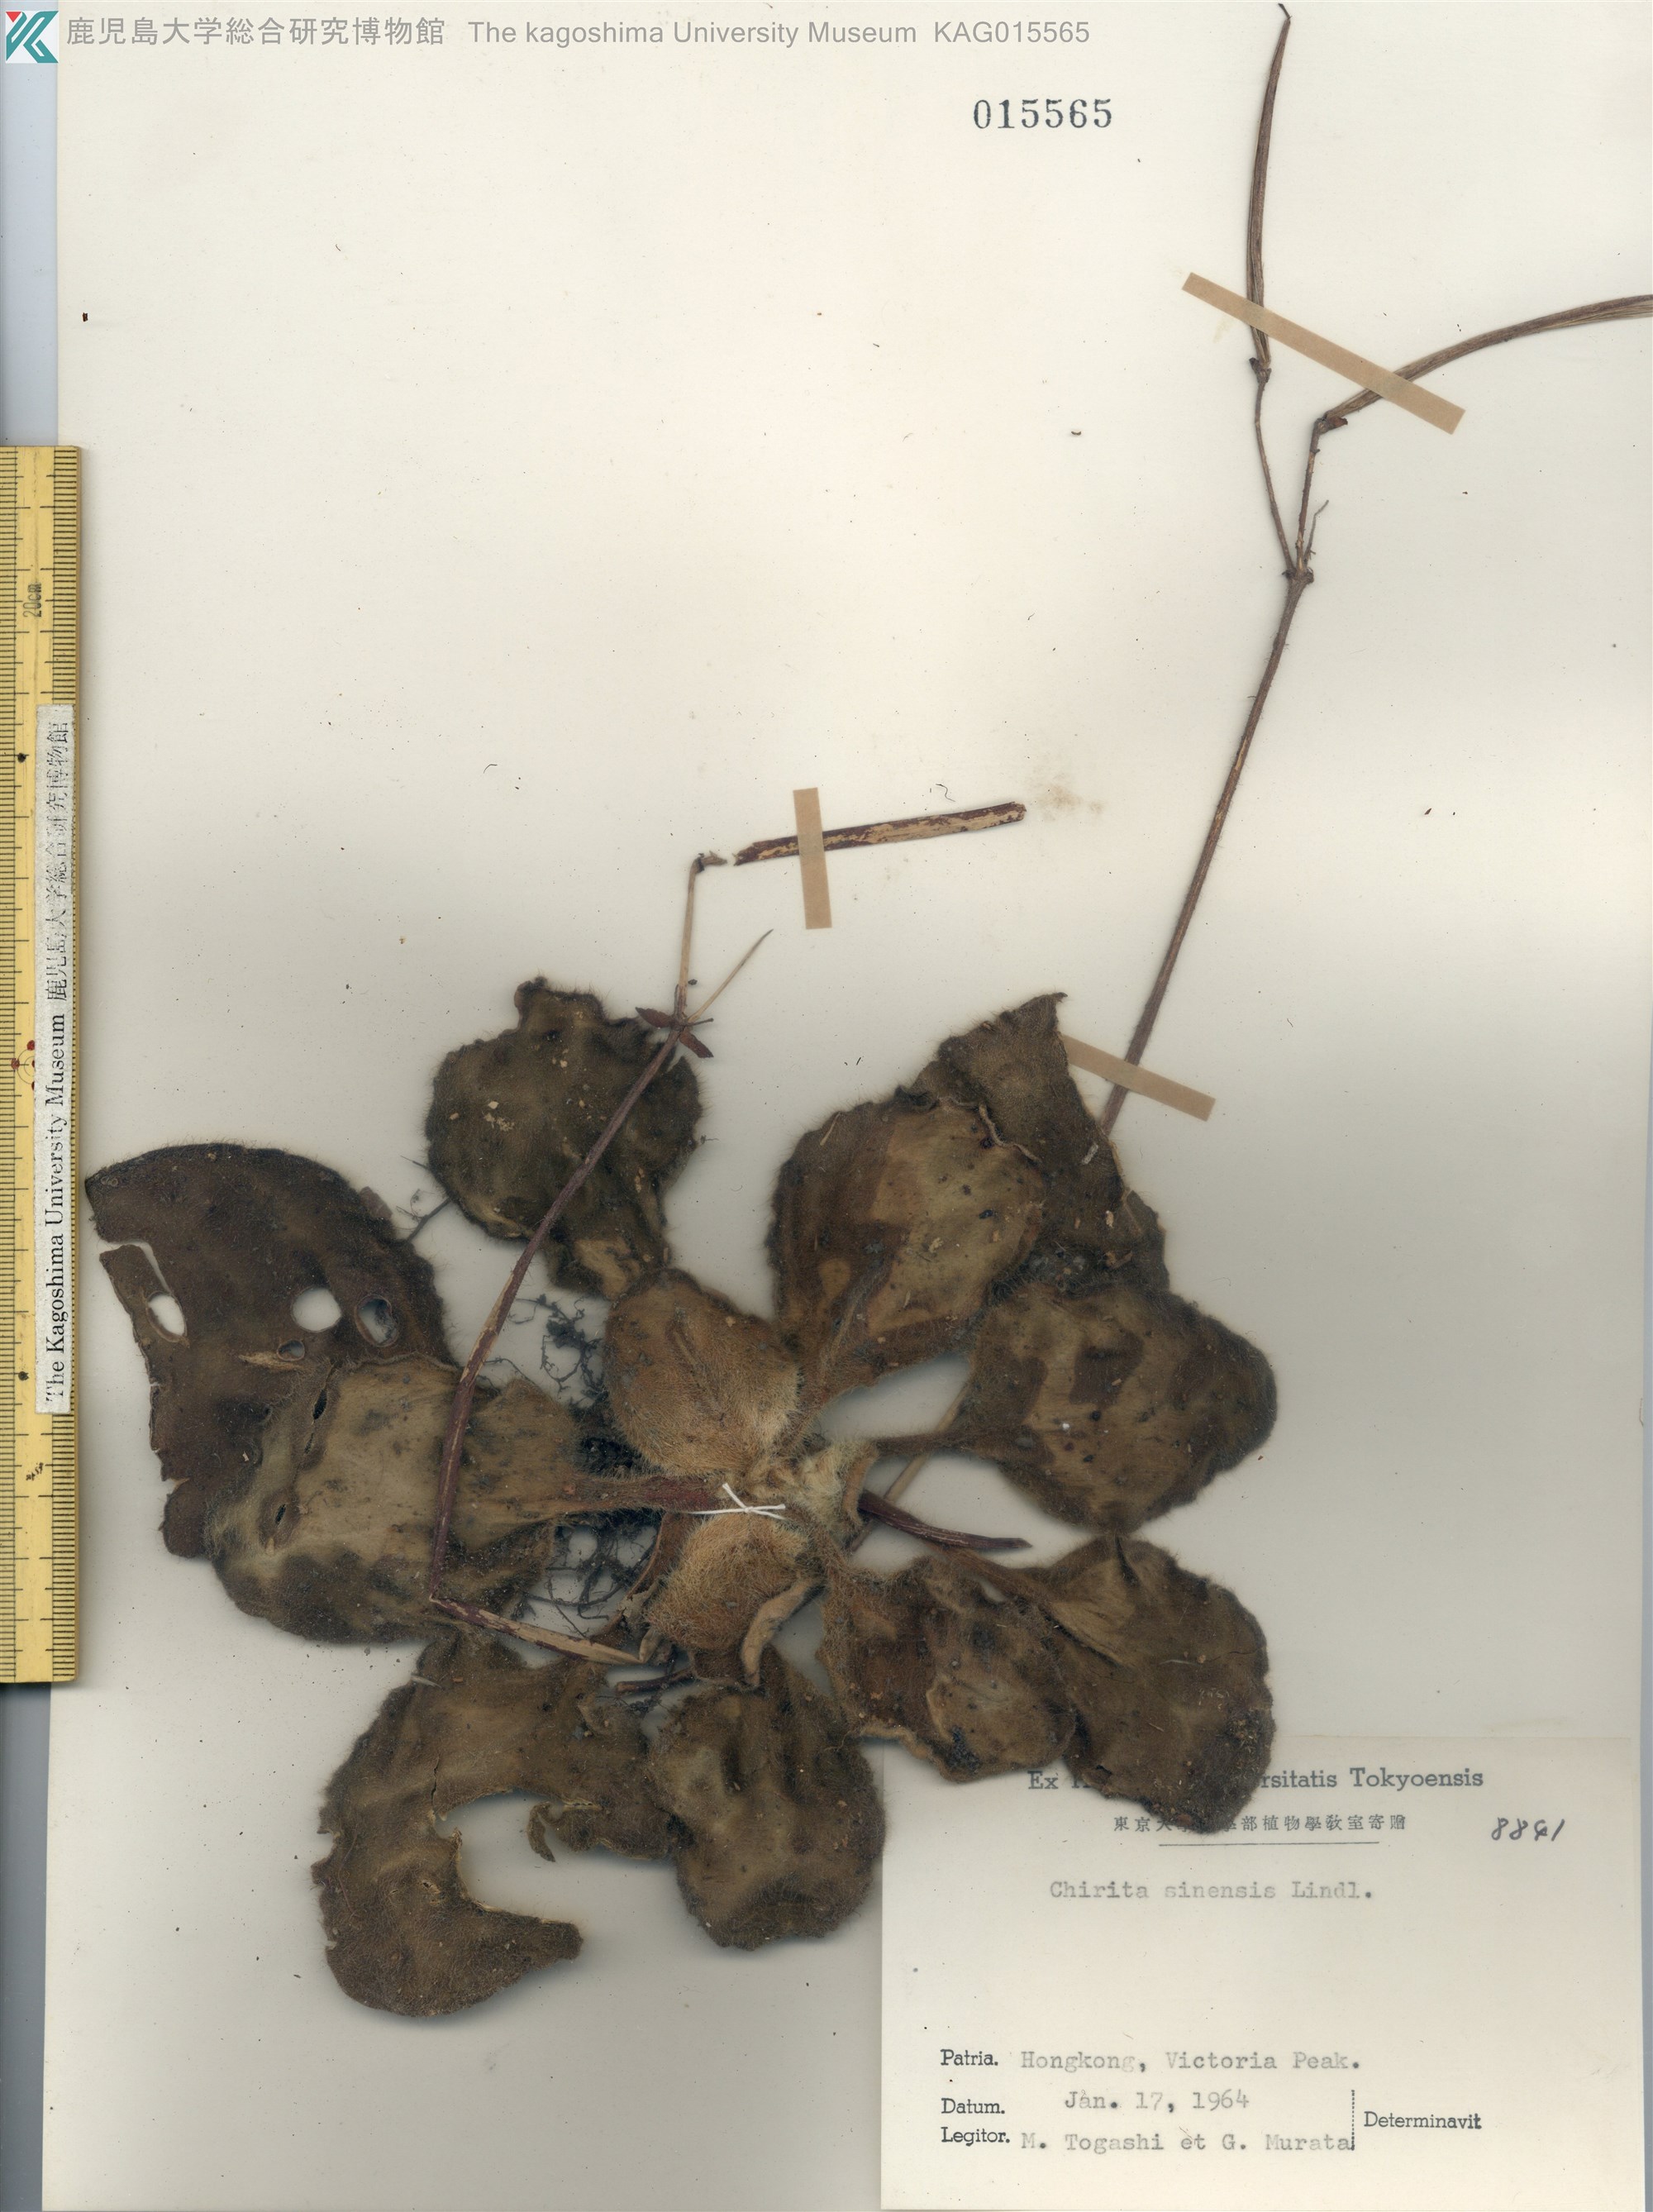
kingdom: Plantae
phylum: Tracheophyta
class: Magnoliopsida
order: Lamiales
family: Gesneriaceae
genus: Primulina
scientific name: Primulina dryas
